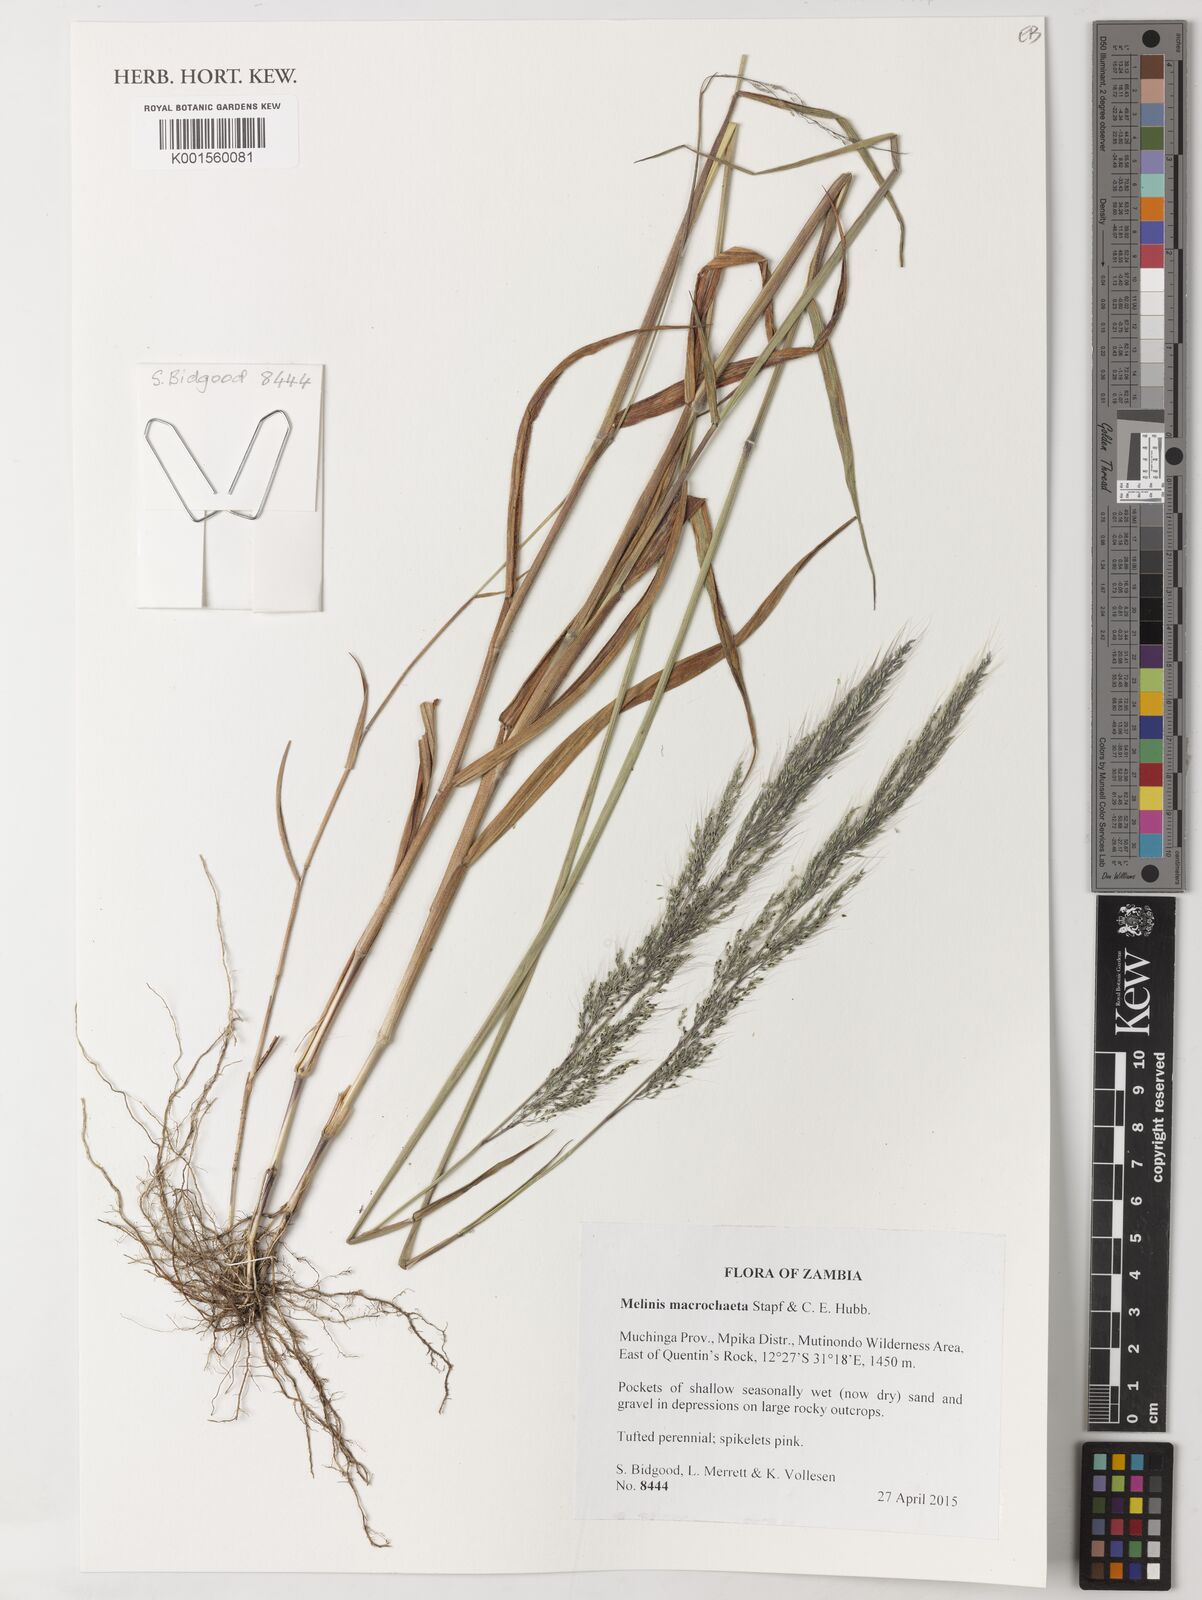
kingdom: Plantae
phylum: Tracheophyta
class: Liliopsida
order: Poales
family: Poaceae
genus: Melinis
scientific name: Melinis macrochaeta
